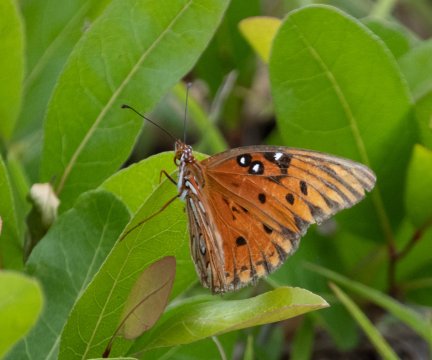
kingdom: Animalia
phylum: Arthropoda
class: Insecta
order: Lepidoptera
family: Nymphalidae
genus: Dione
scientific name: Dione vanillae
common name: Gulf Fritillary
